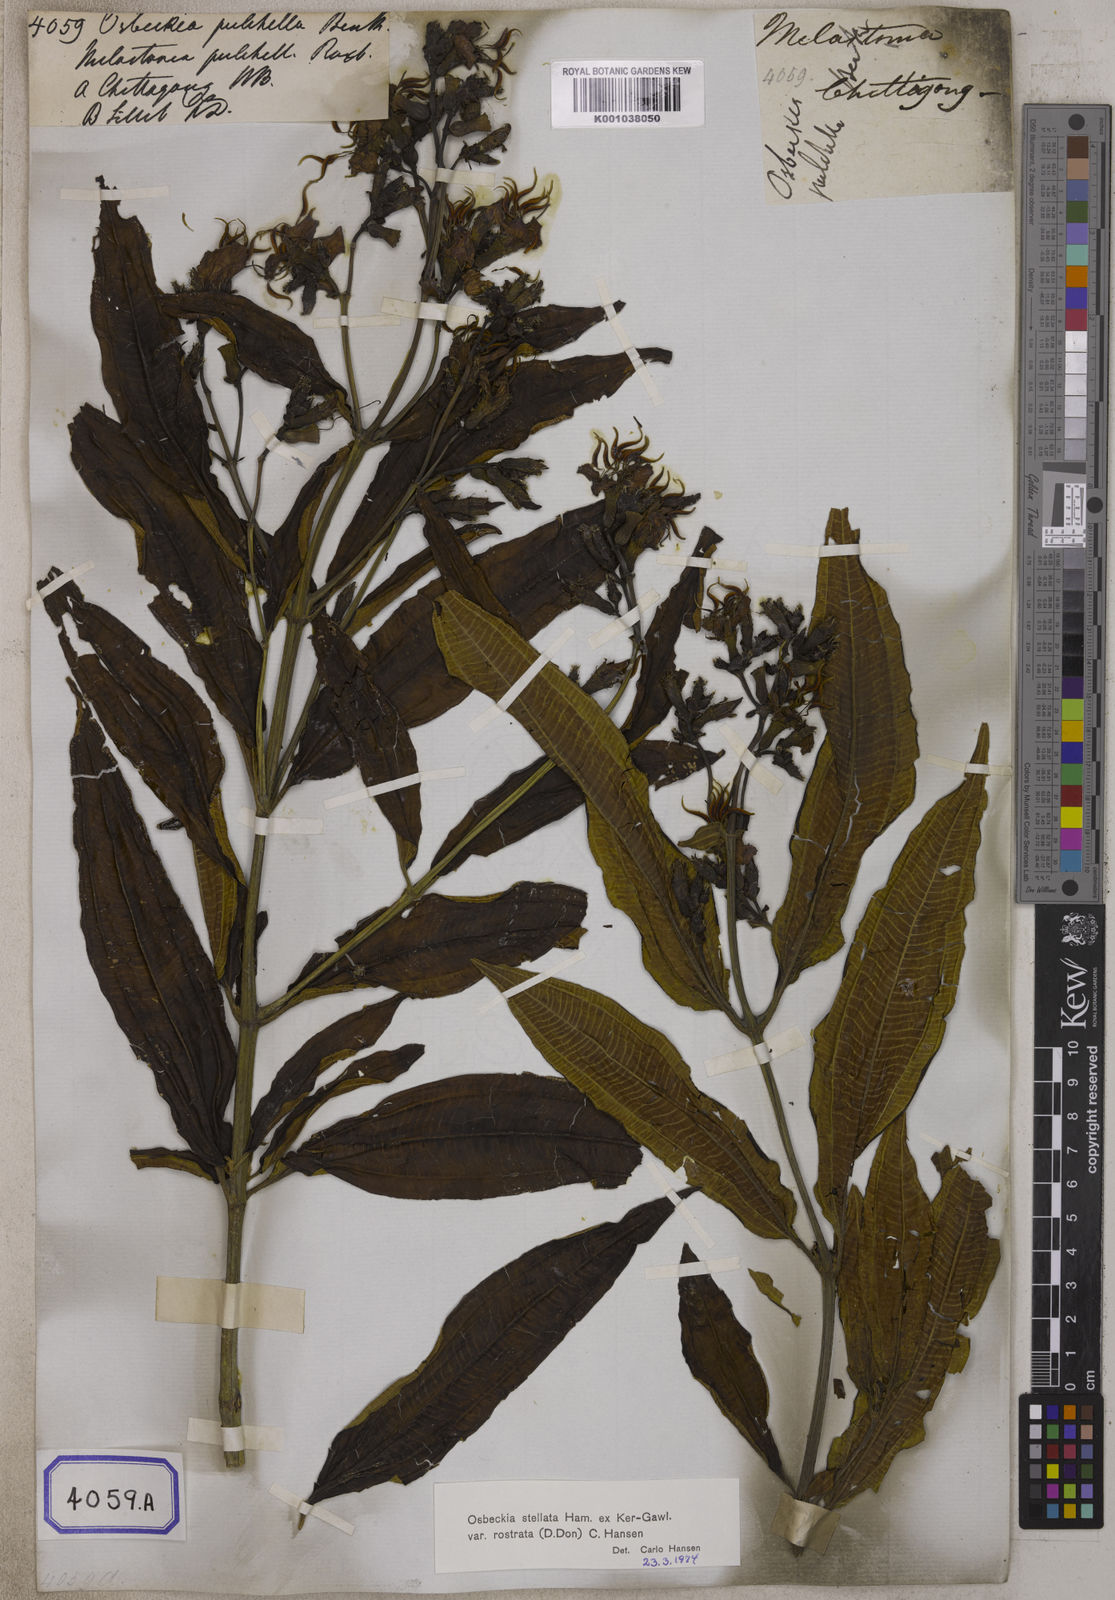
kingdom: Plantae
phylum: Tracheophyta
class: Magnoliopsida
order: Myrtales
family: Melastomataceae
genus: Osbeckia
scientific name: Osbeckia rostrata
